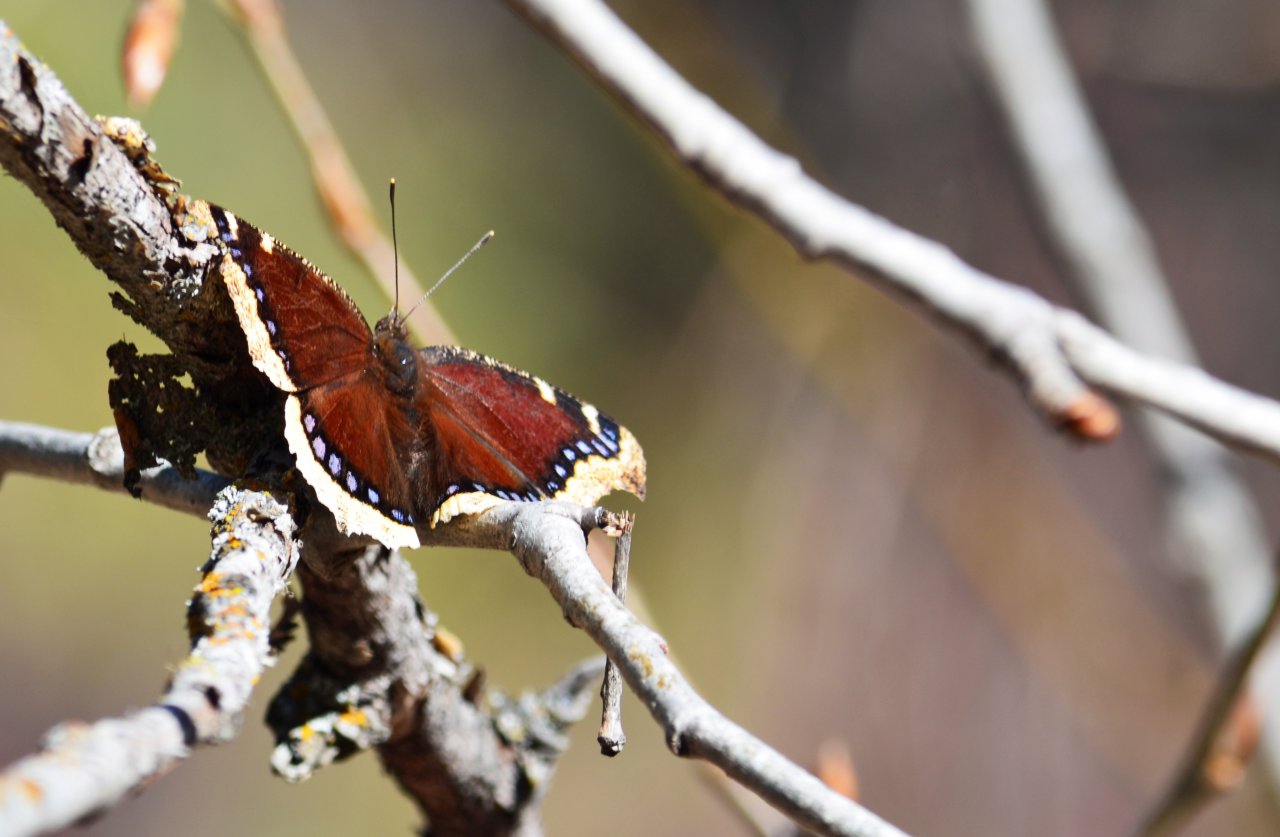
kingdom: Animalia
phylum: Arthropoda
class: Insecta
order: Lepidoptera
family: Nymphalidae
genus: Nymphalis
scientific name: Nymphalis antiopa
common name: Mourning Cloak
